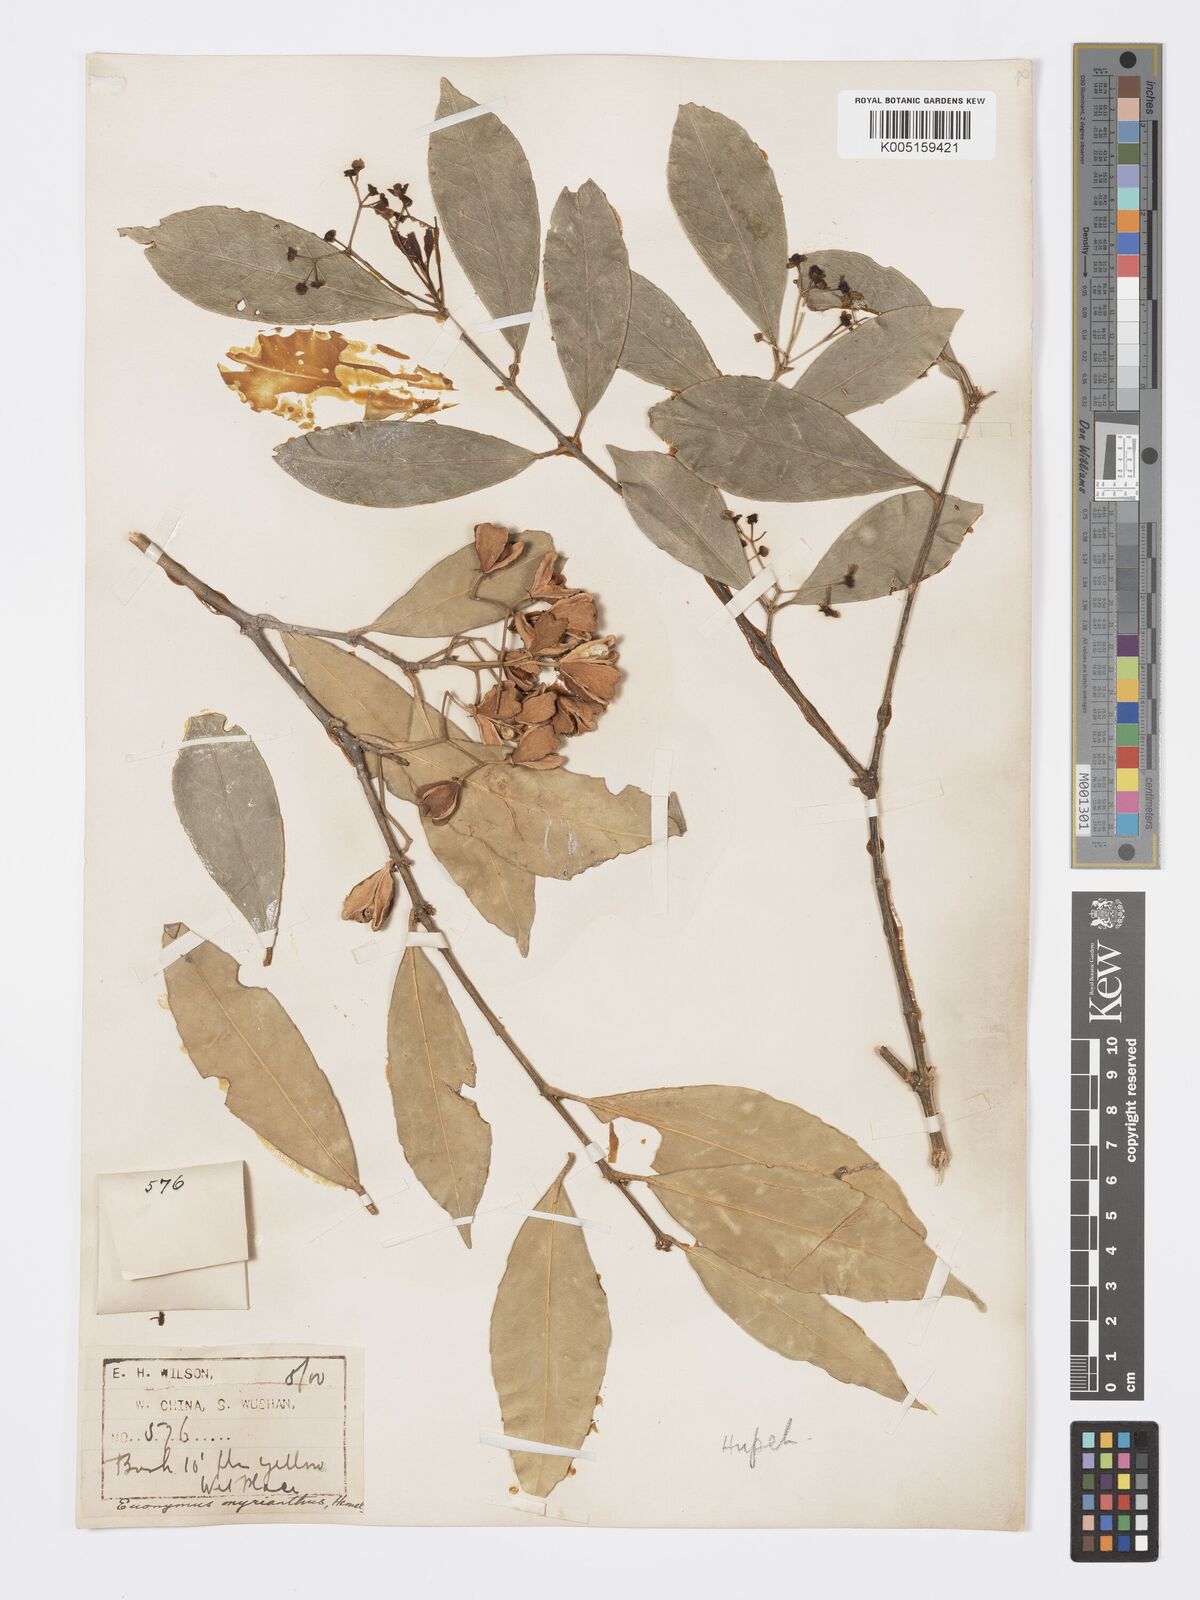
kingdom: Plantae
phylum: Tracheophyta
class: Magnoliopsida
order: Celastrales
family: Celastraceae
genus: Euonymus
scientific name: Euonymus myrianthus
